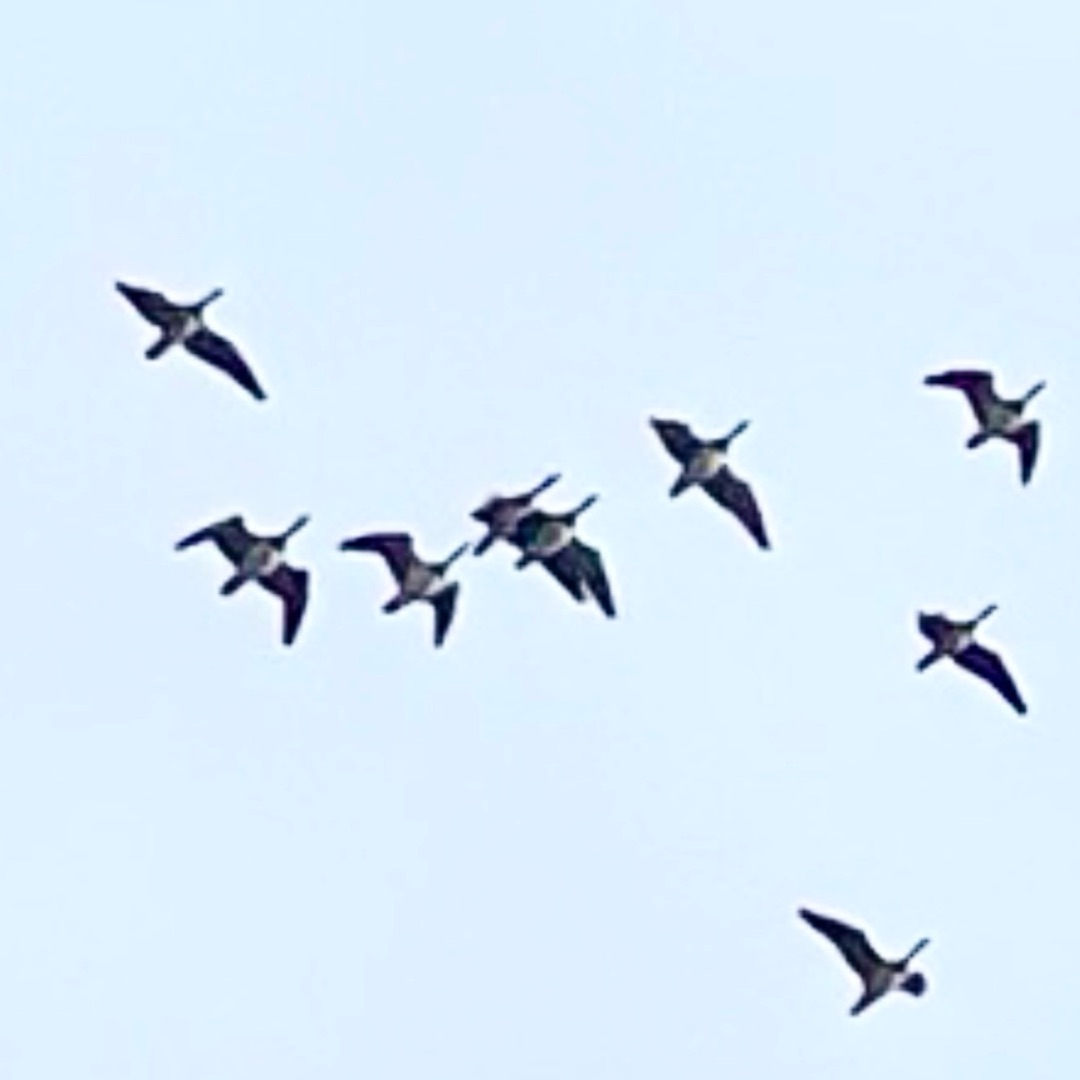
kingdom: Animalia
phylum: Chordata
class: Aves
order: Anseriformes
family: Anatidae
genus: Branta
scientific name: Branta leucopsis
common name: Bramgås
